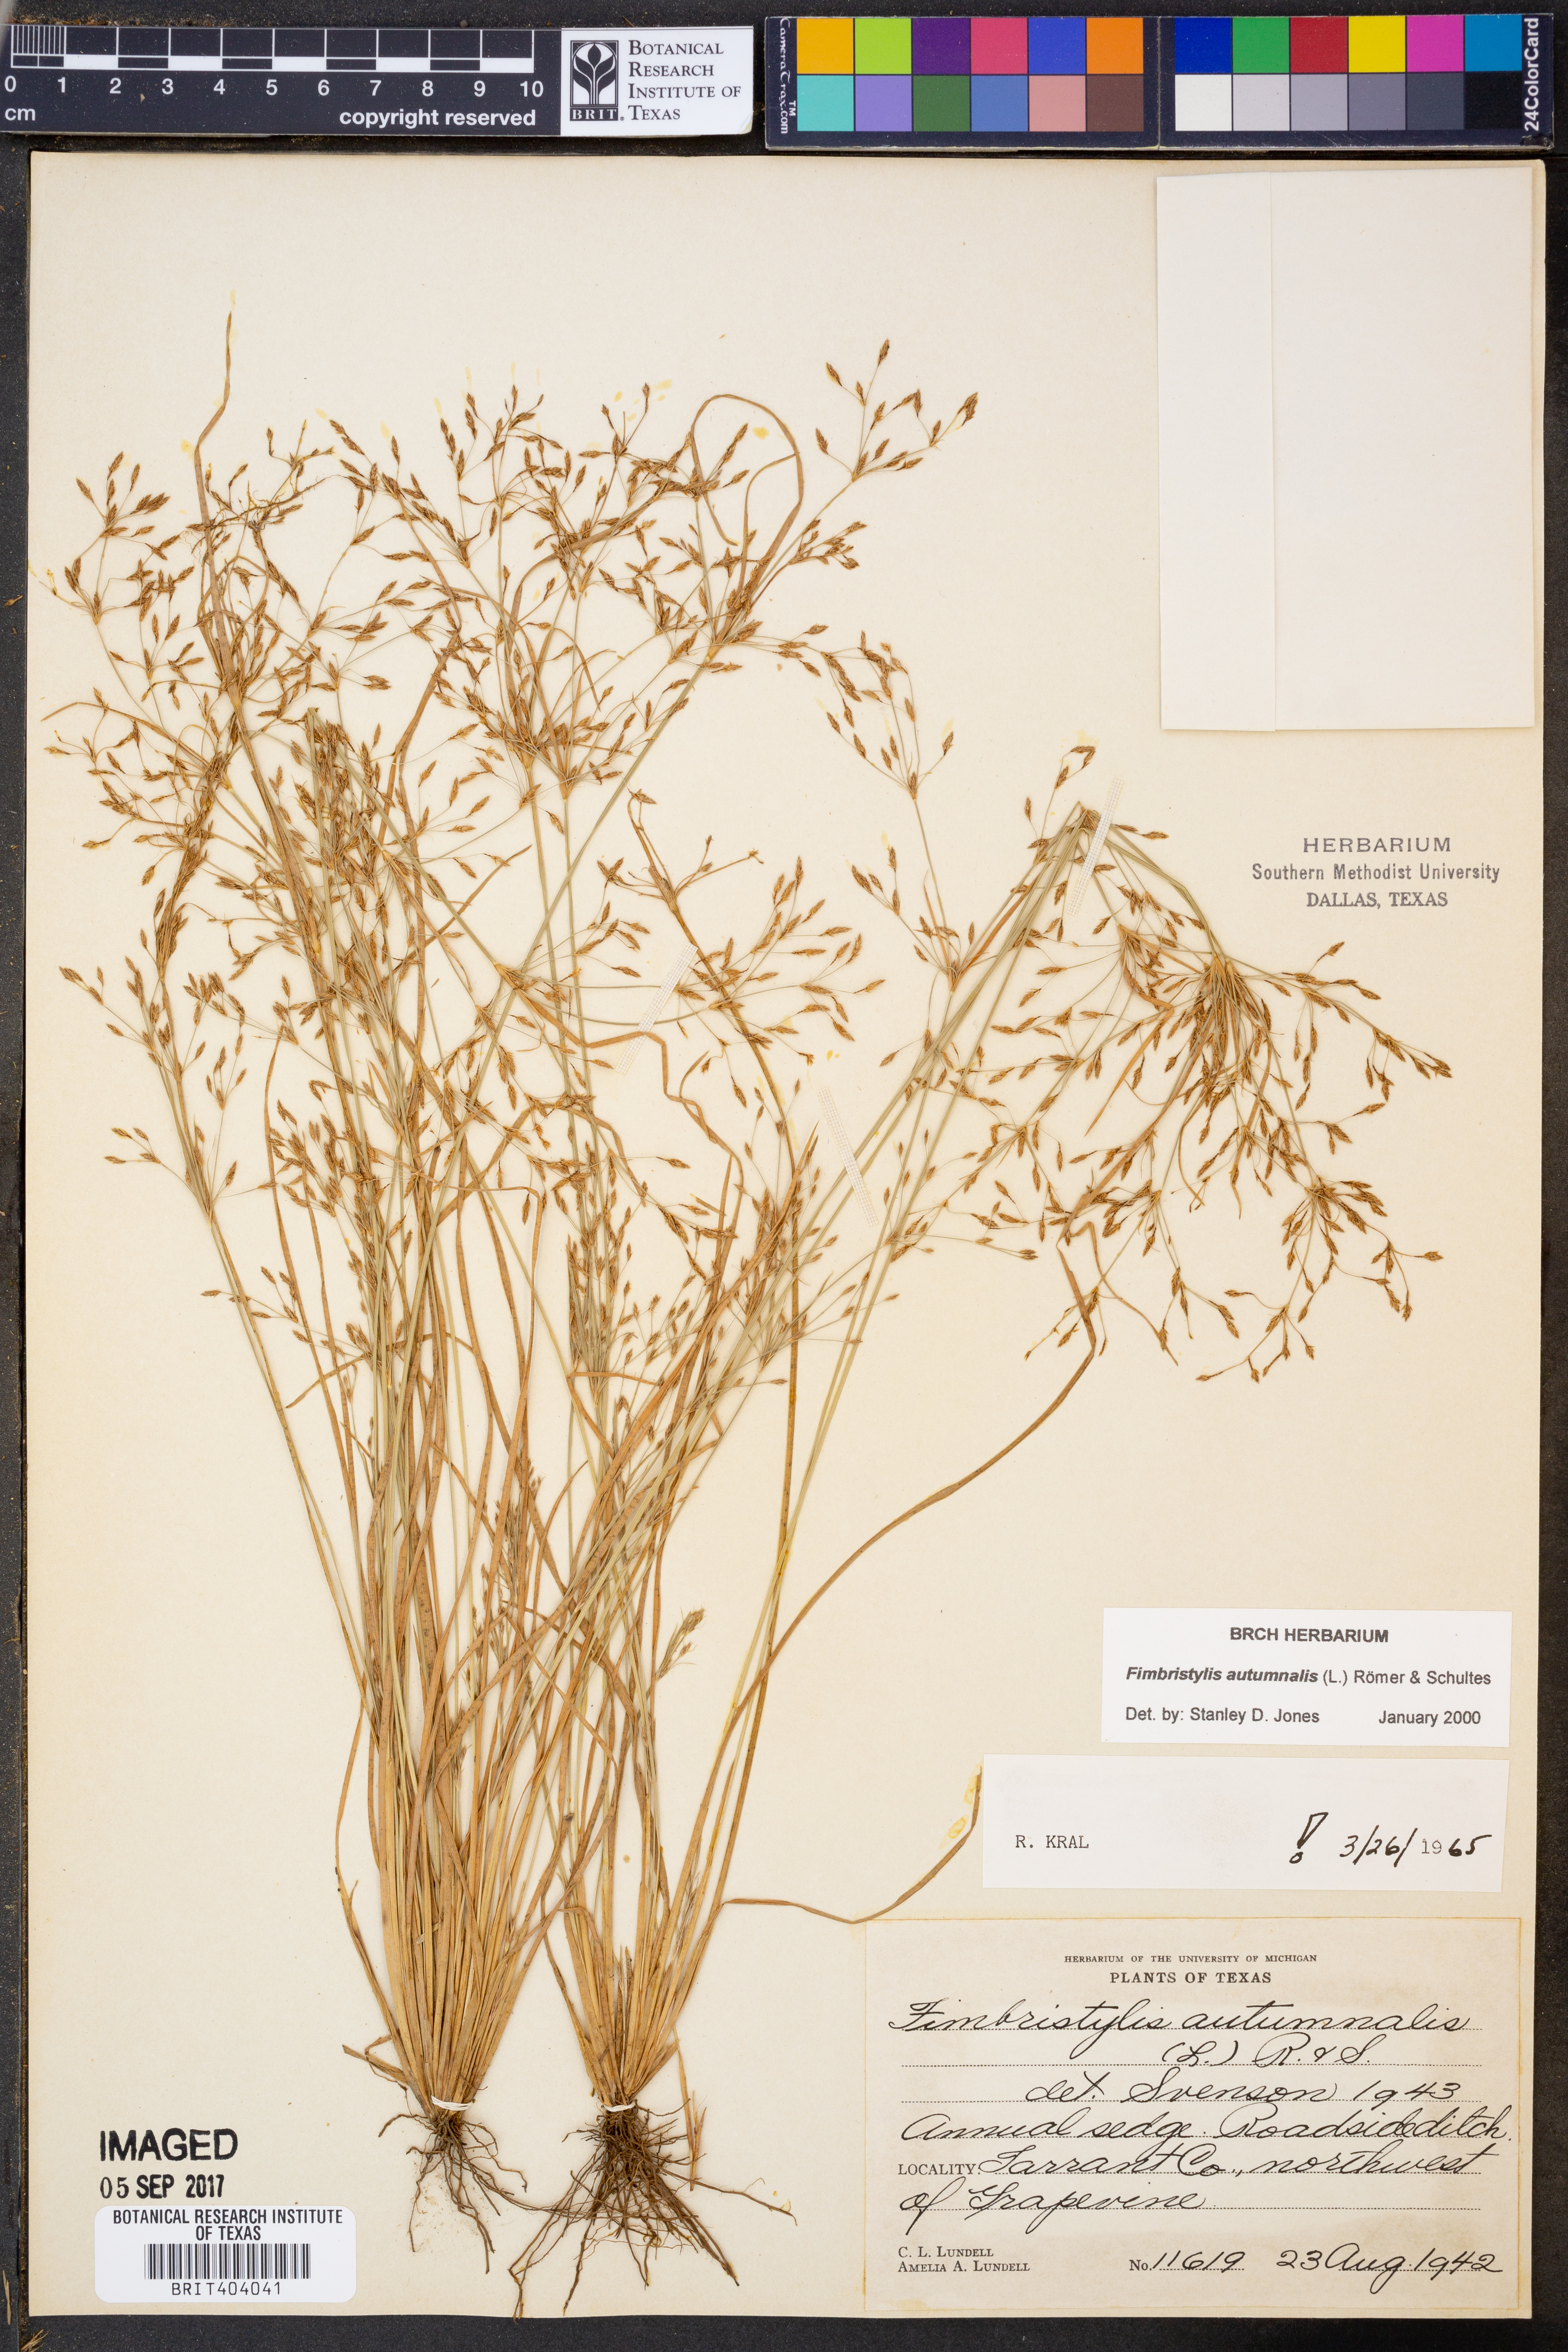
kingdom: Plantae
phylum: Tracheophyta
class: Liliopsida
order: Poales
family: Cyperaceae
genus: Fimbristylis
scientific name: Fimbristylis autumnalis
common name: Slender fimbristylis
